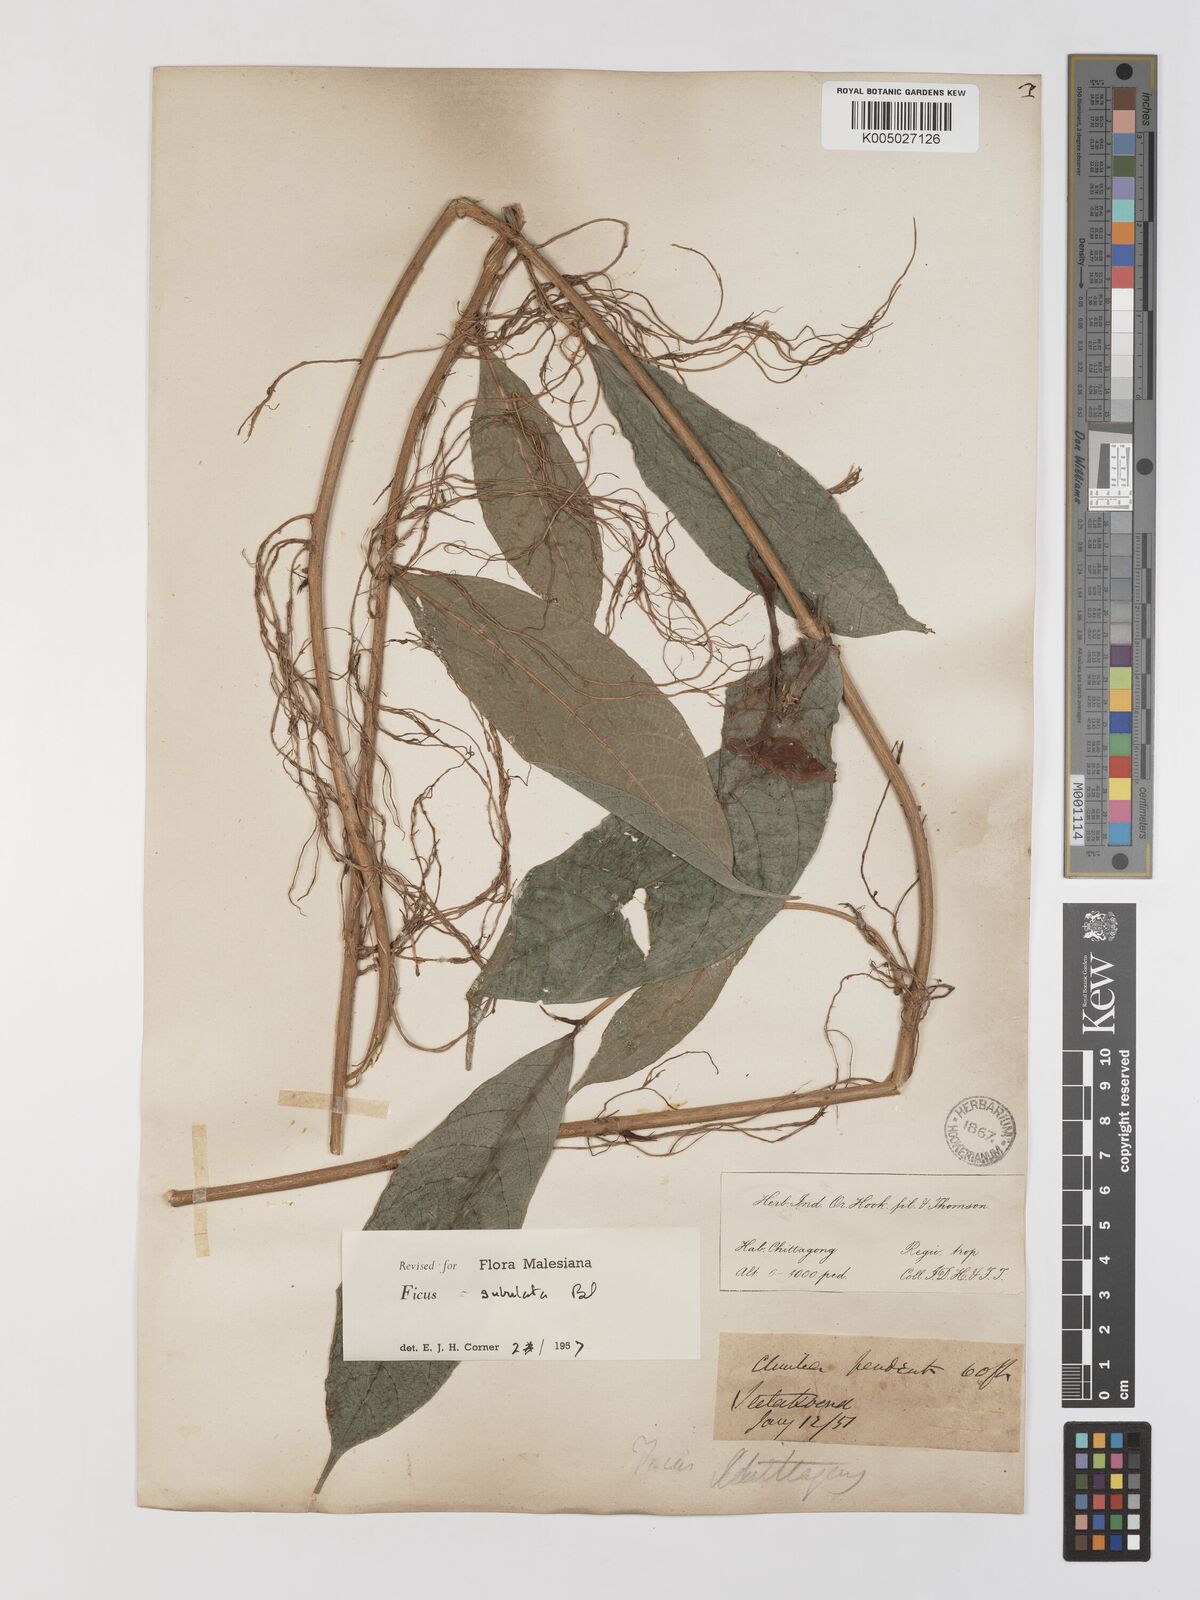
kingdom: Plantae
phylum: Tracheophyta
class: Magnoliopsida
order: Rosales
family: Moraceae
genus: Ficus
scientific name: Ficus subulata
